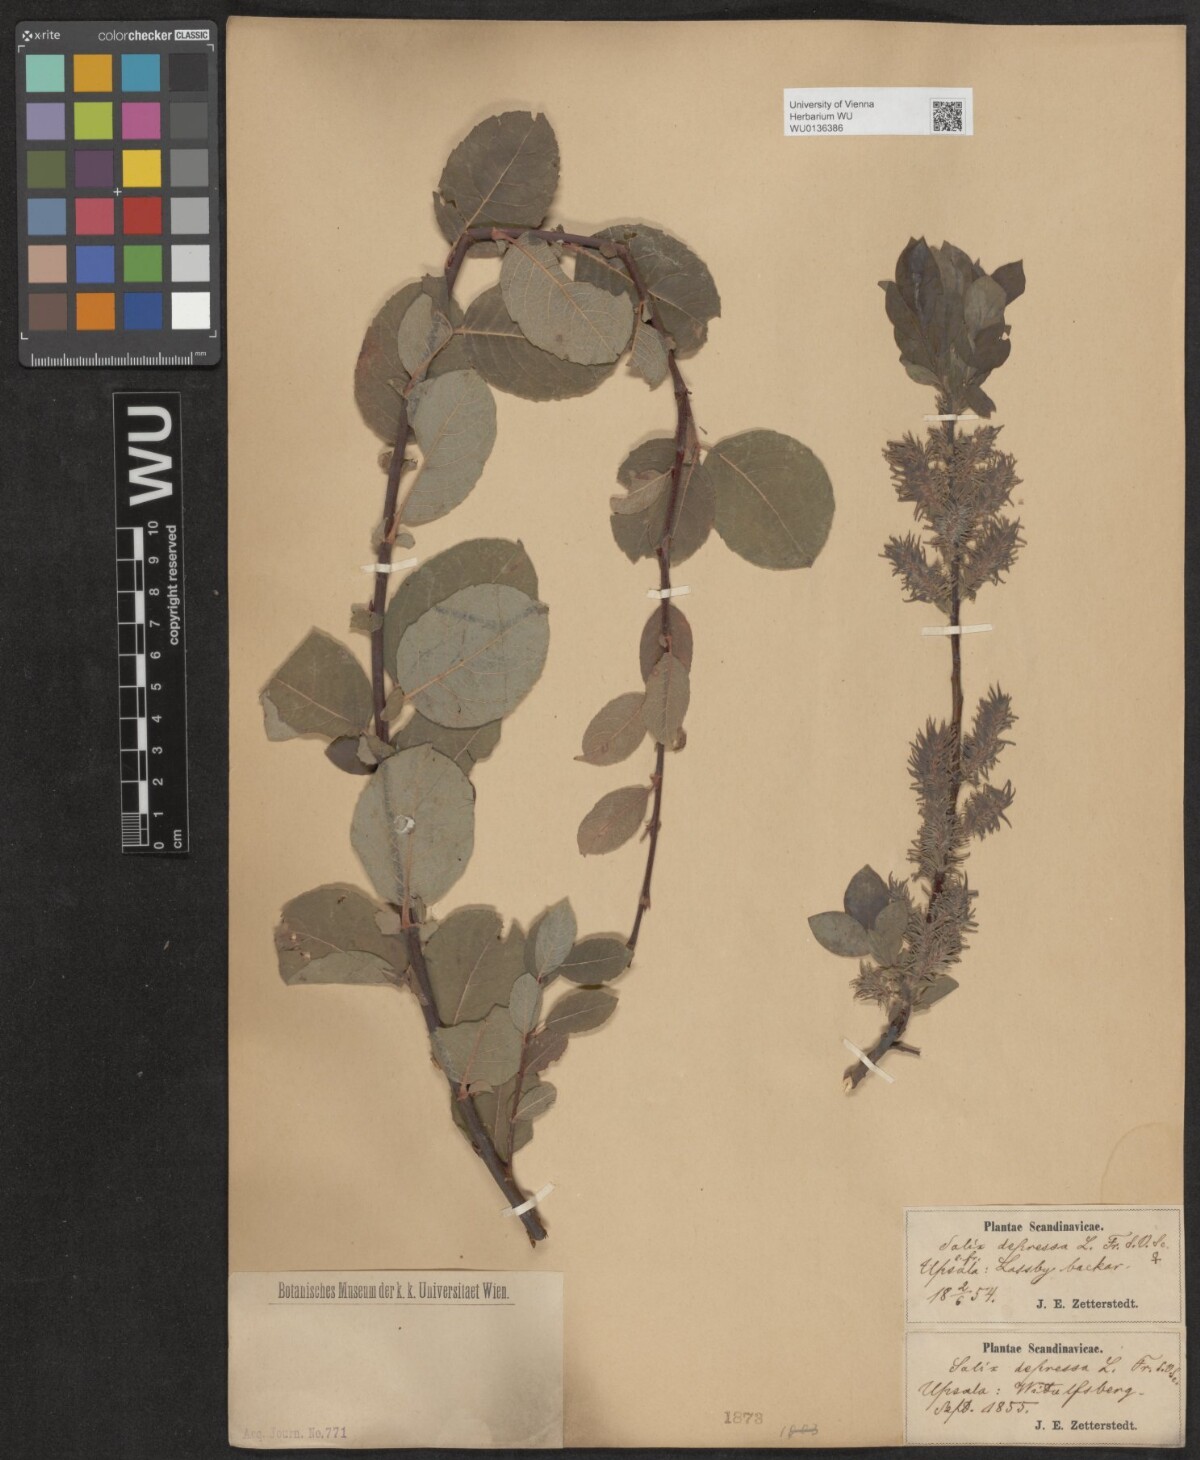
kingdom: Plantae
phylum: Tracheophyta
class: Magnoliopsida
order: Malpighiales
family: Salicaceae
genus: Salix
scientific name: Salix lanata
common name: Woolly willow
